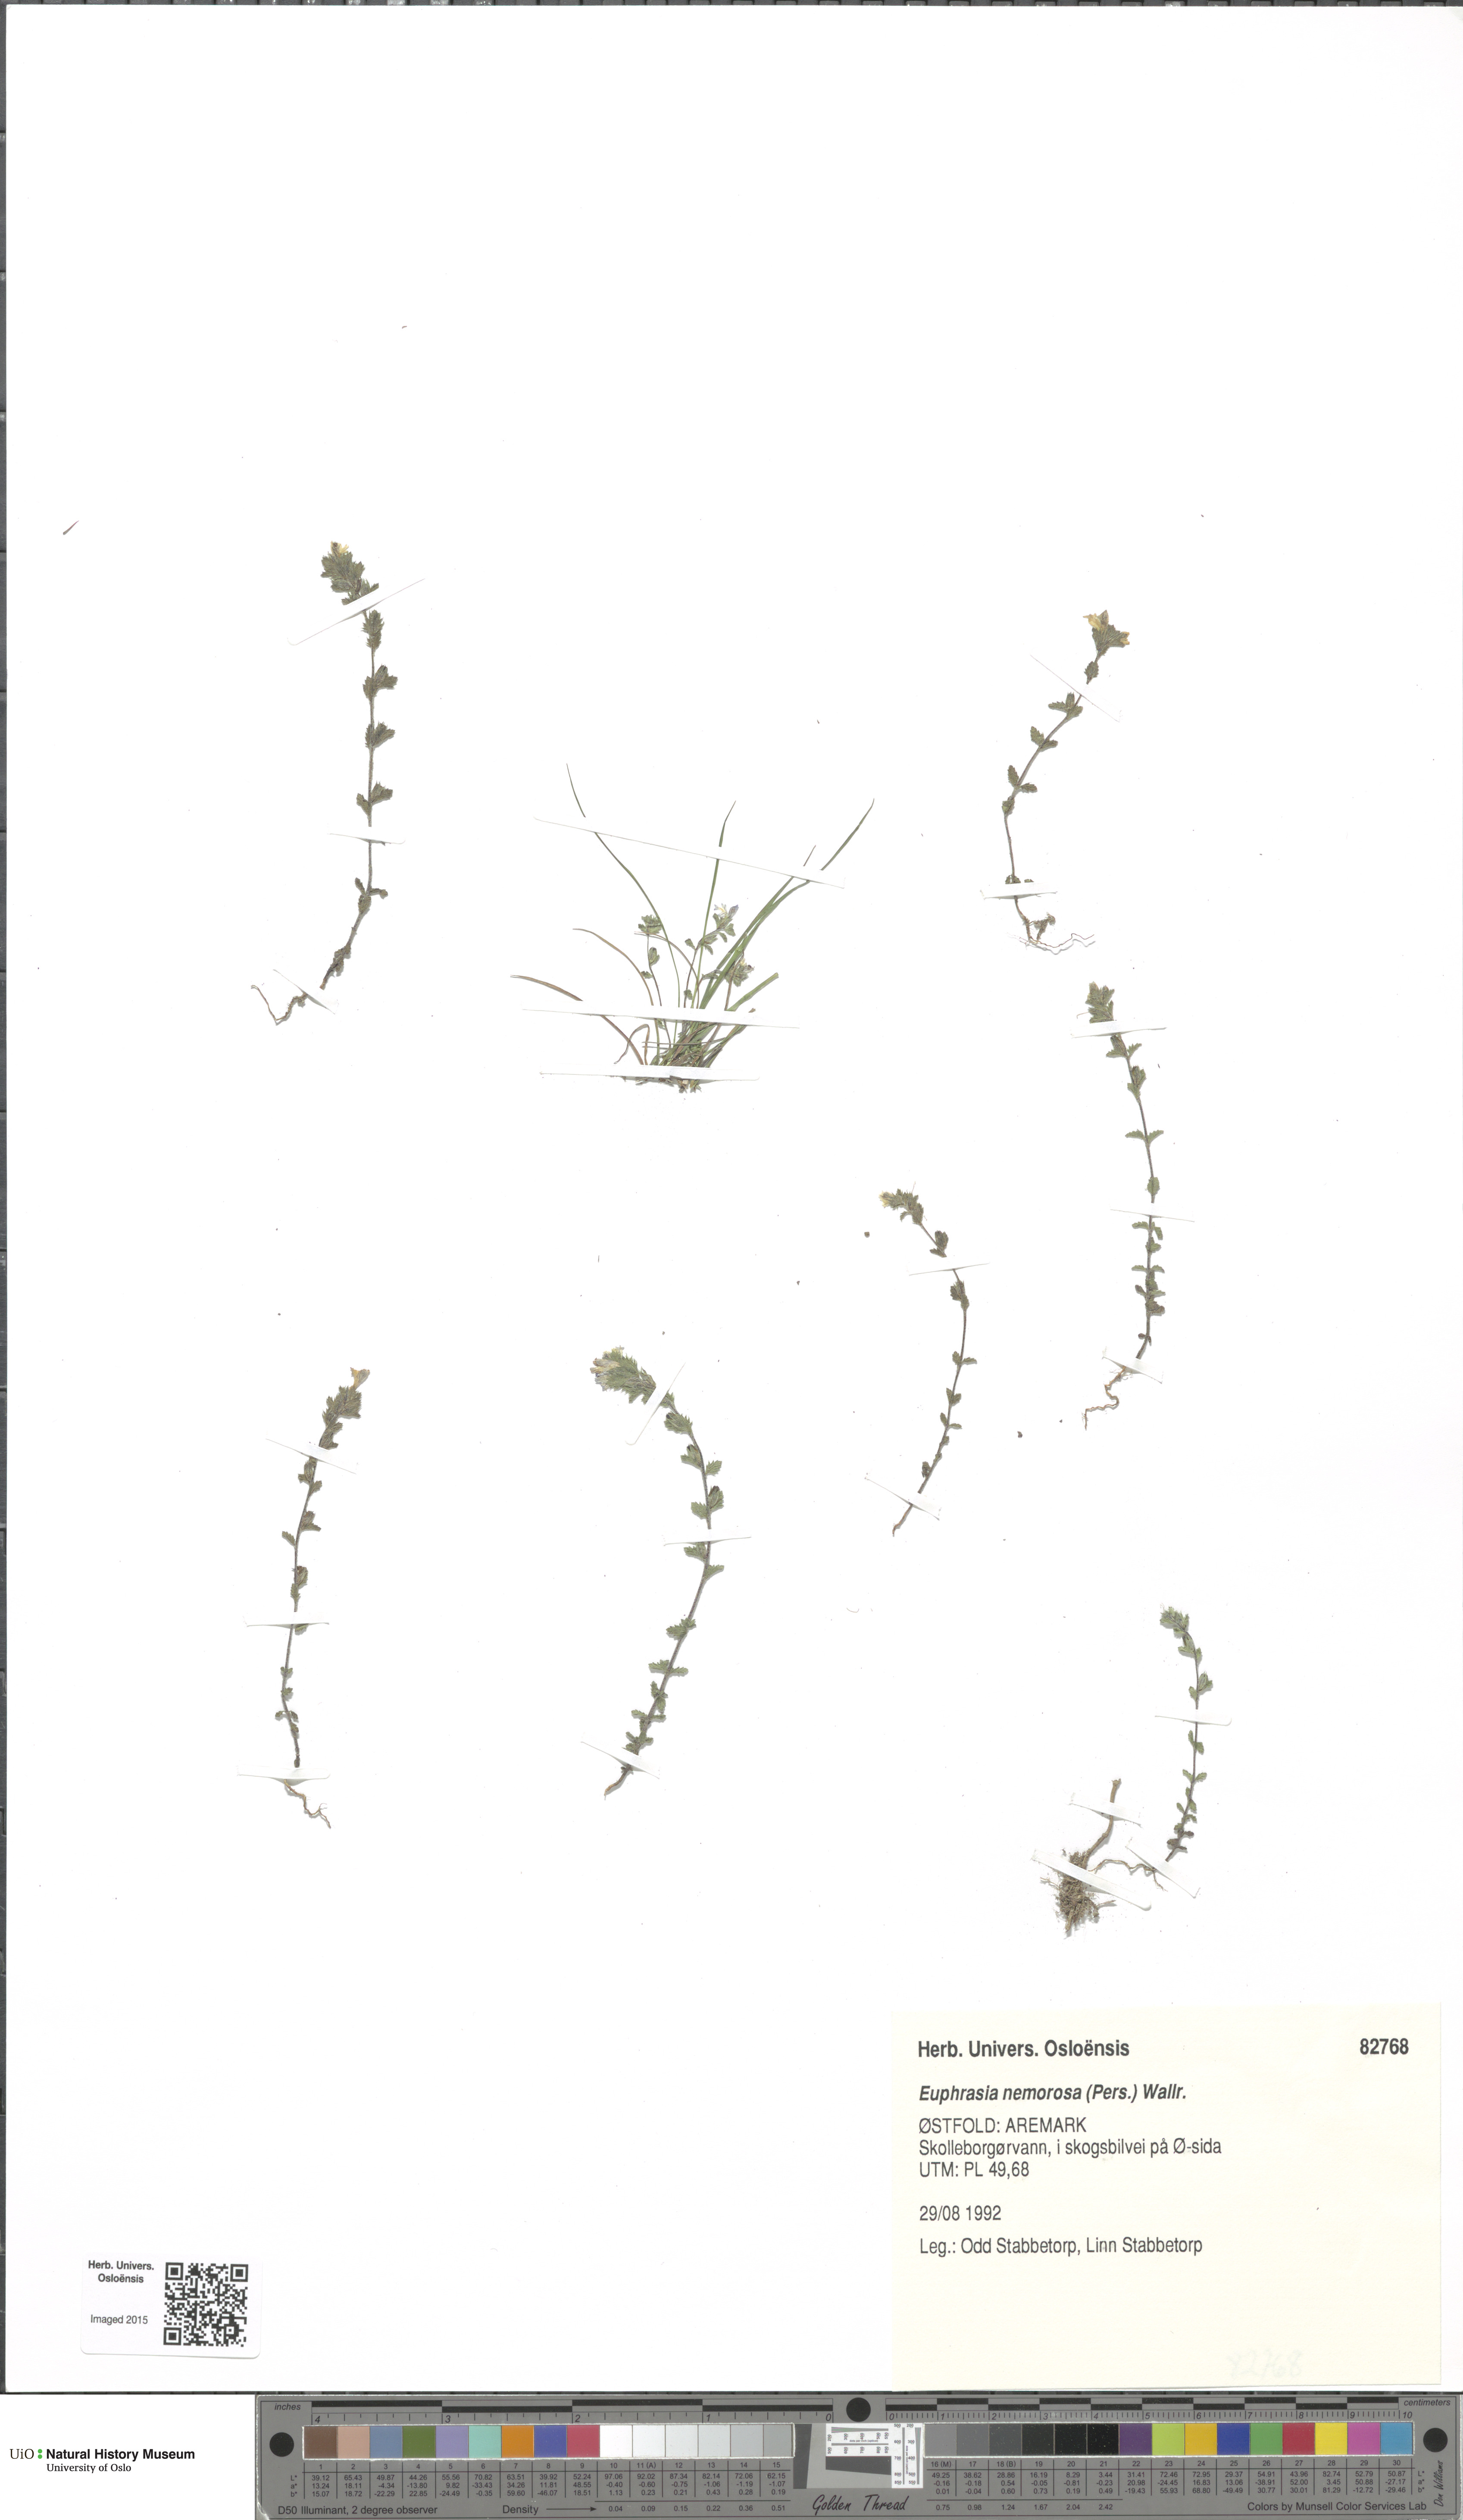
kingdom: Plantae
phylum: Tracheophyta
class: Magnoliopsida
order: Lamiales
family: Orobanchaceae
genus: Euphrasia
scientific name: Euphrasia nemorosa
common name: Common eyebright
